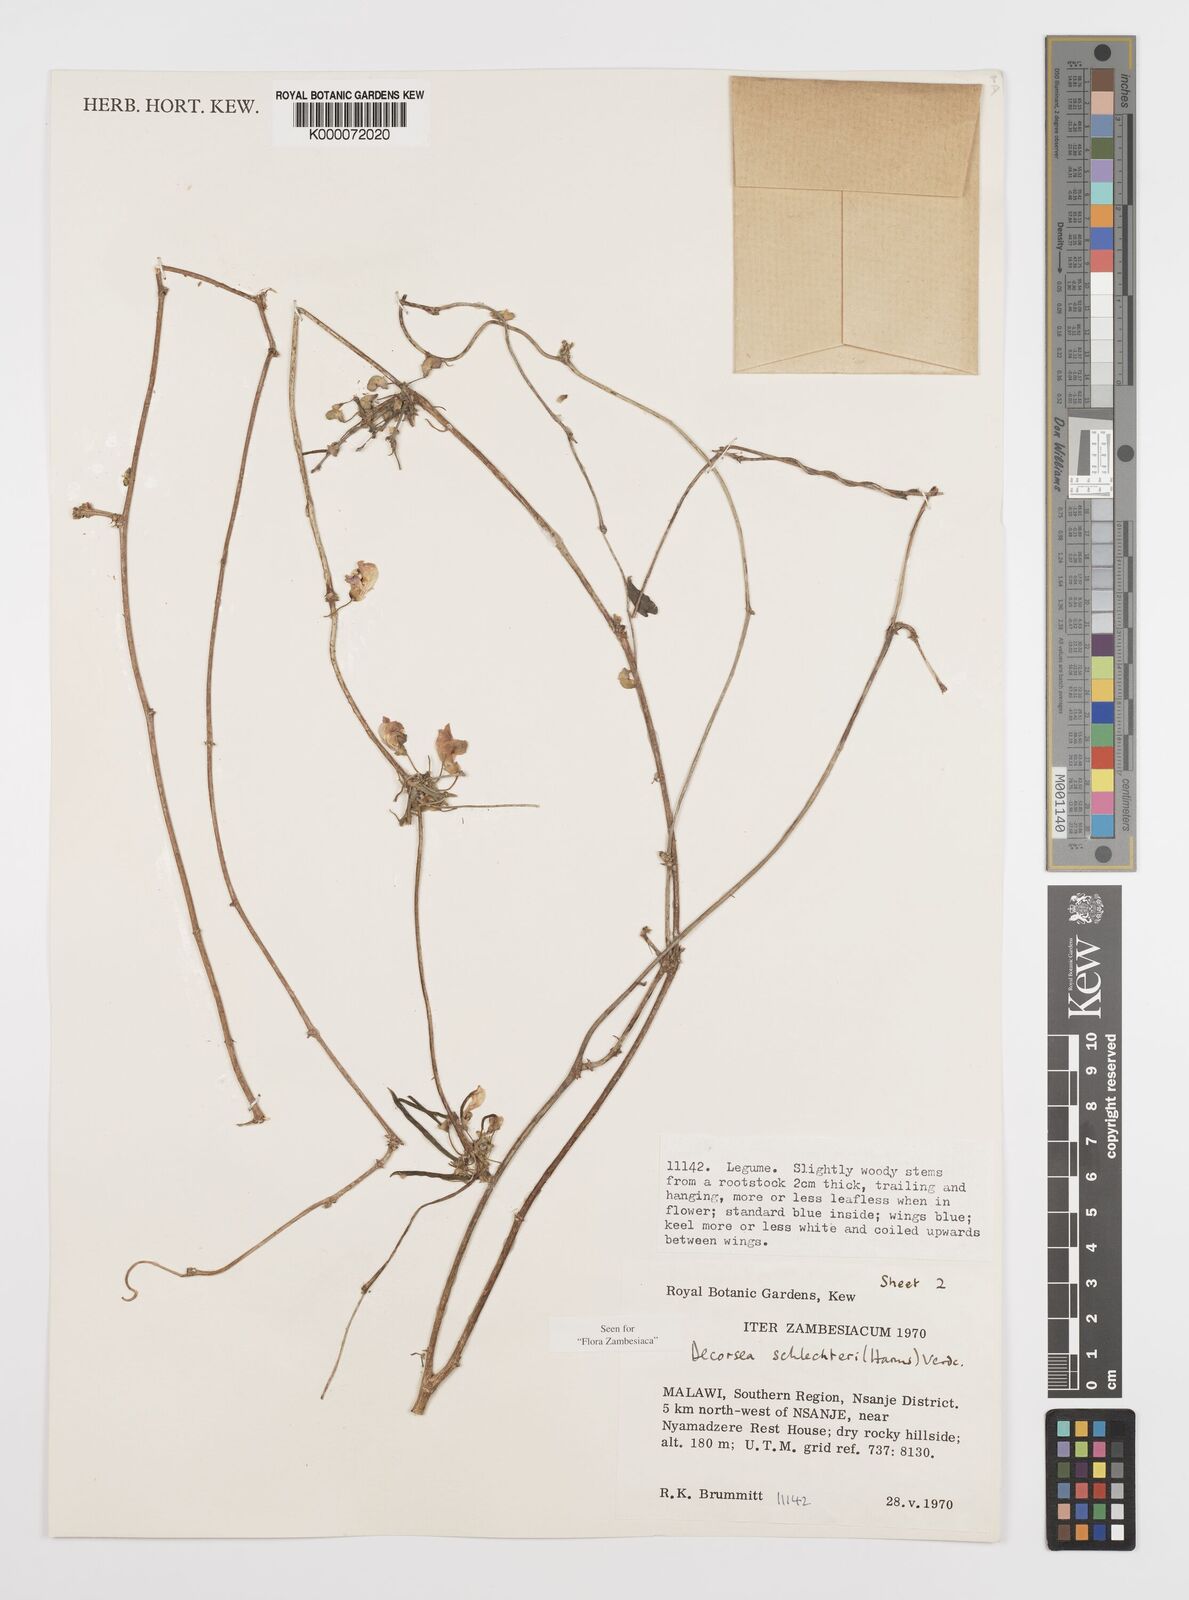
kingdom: Plantae
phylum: Tracheophyta
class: Magnoliopsida
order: Fabales
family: Fabaceae
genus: Decorsea
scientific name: Decorsea schlechteri
